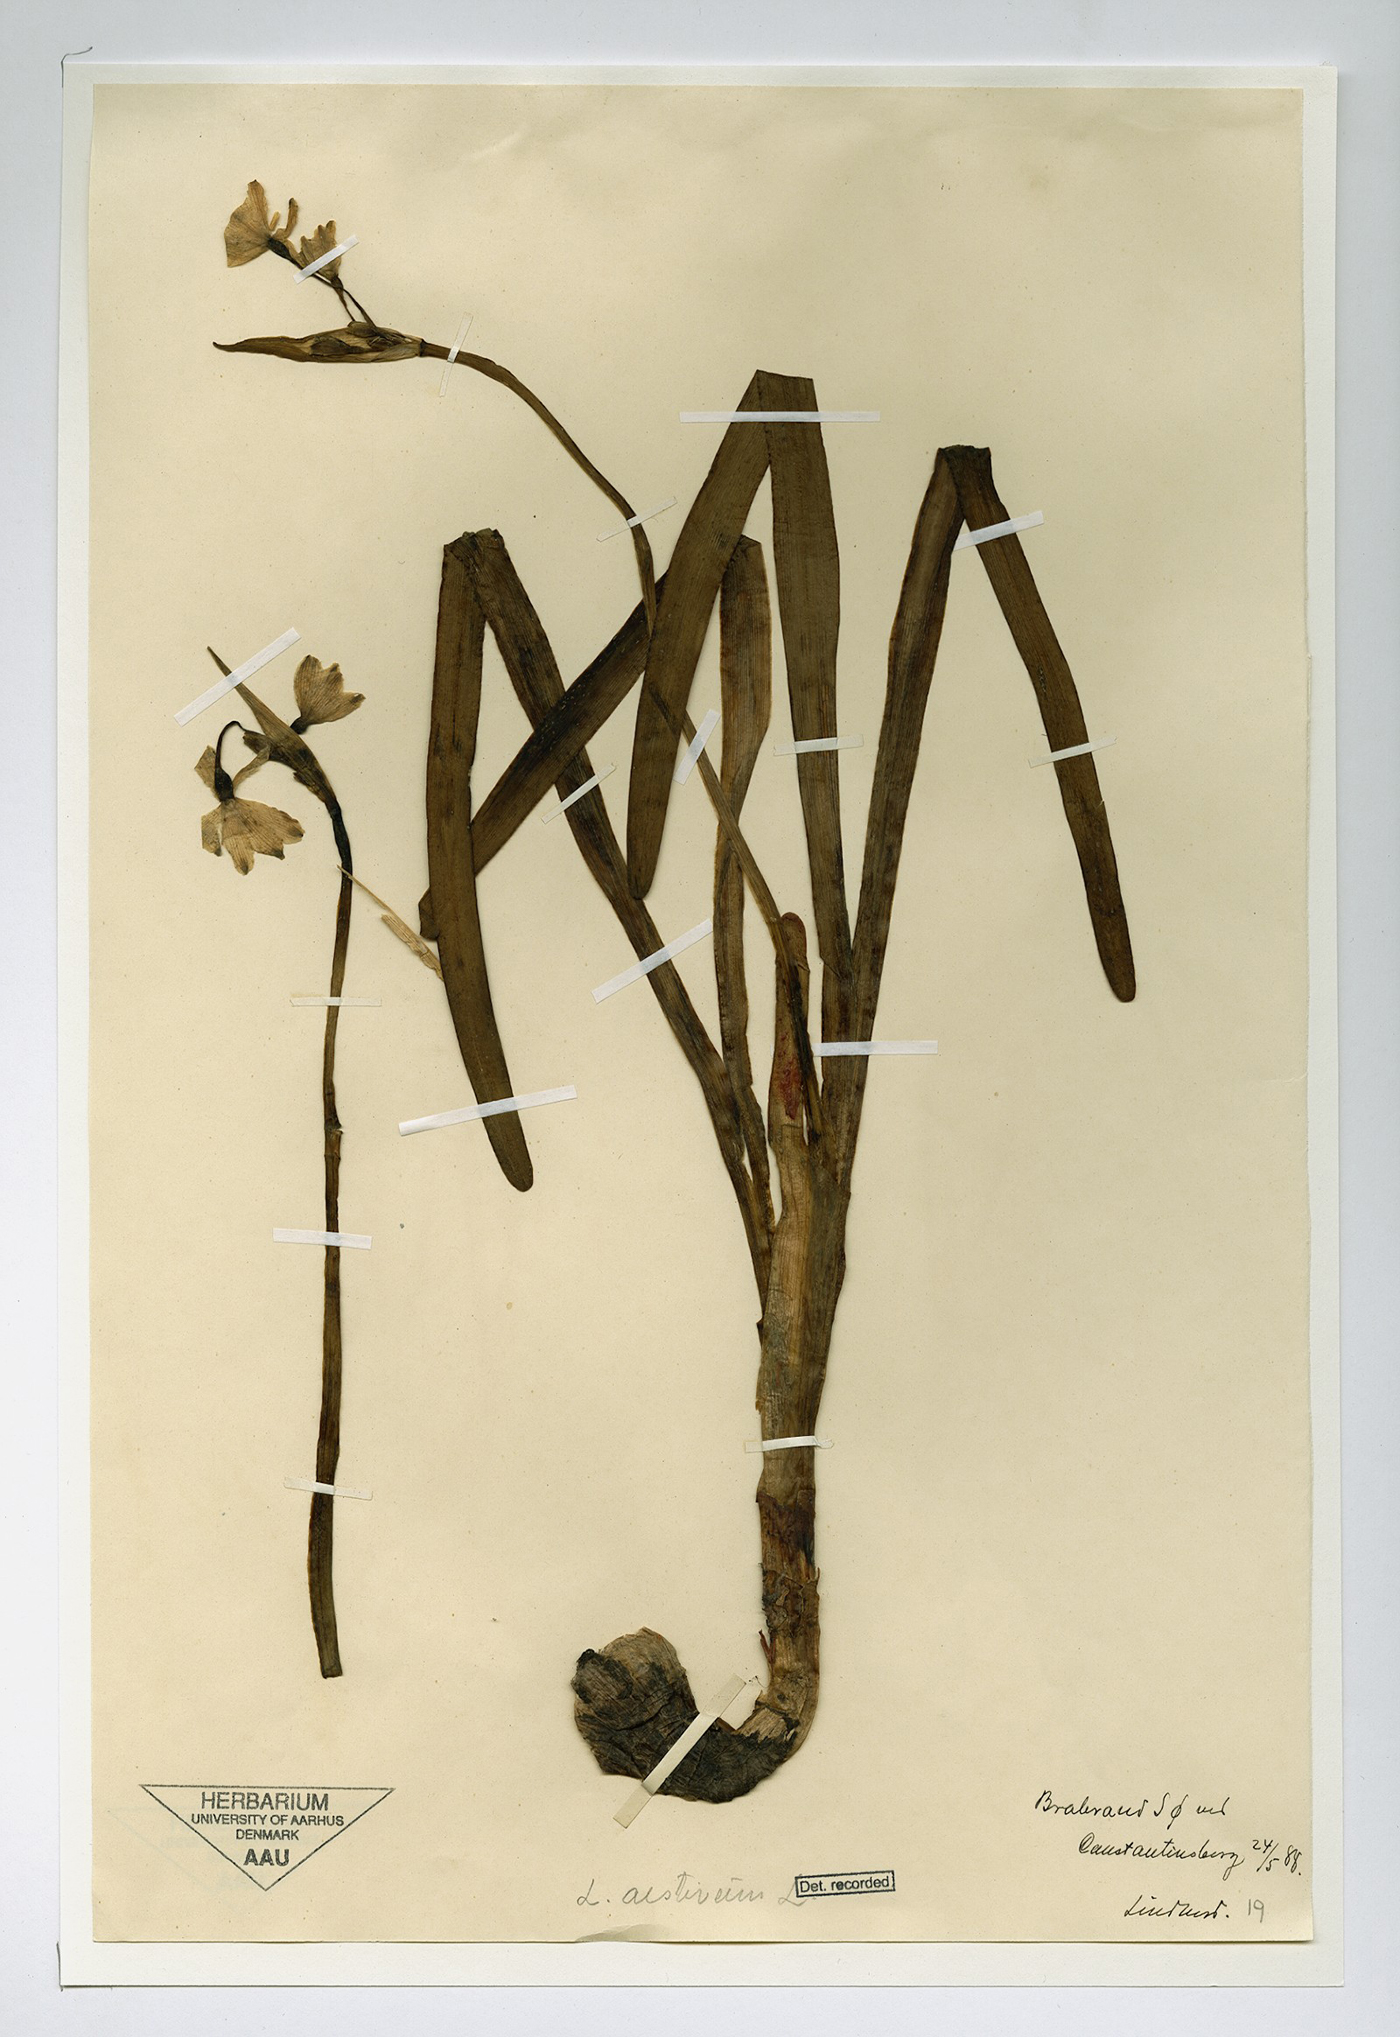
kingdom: Plantae
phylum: Tracheophyta
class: Liliopsida
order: Asparagales
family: Amaryllidaceae
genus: Leucojum
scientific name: Leucojum aestivum
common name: Summer snowflake
